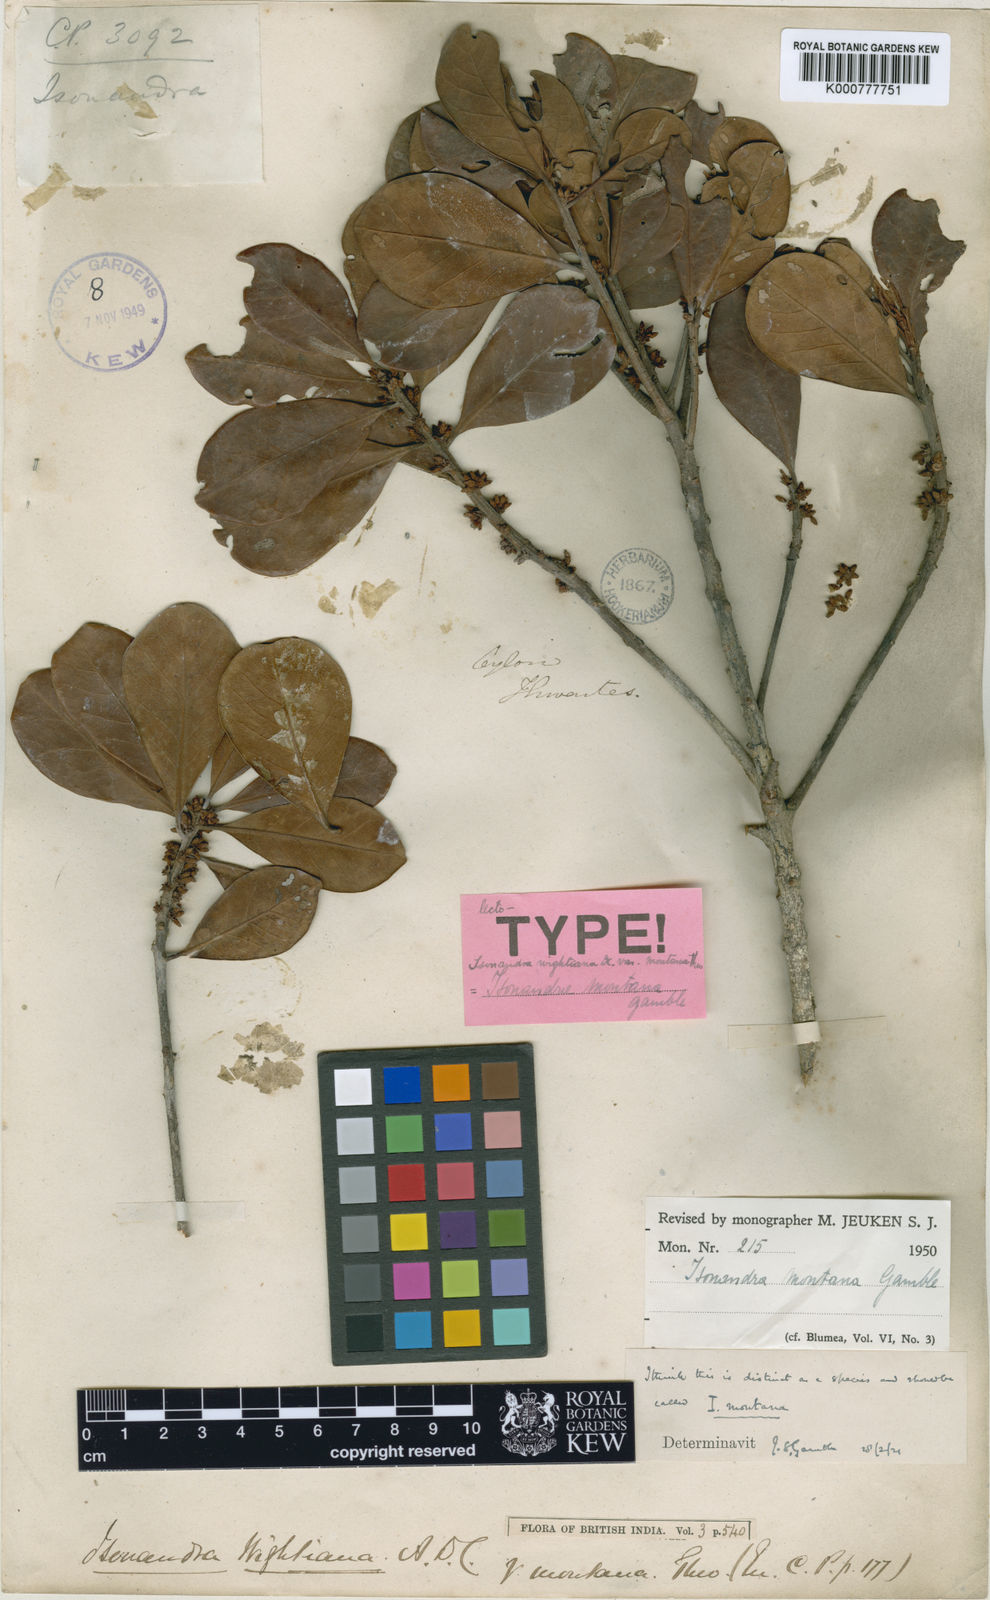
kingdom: Plantae
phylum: Tracheophyta
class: Magnoliopsida
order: Ericales
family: Sapotaceae
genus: Isonandra
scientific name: Isonandra montana
